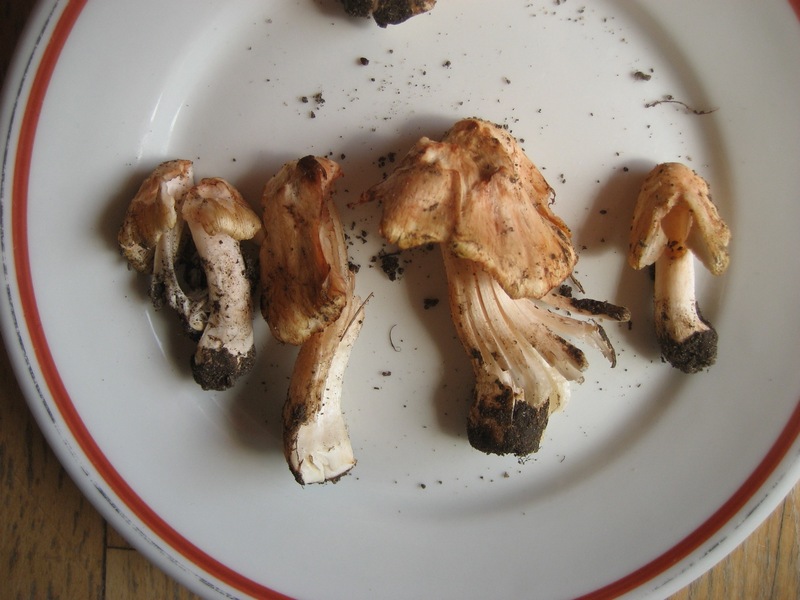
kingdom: Fungi
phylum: Basidiomycota
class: Agaricomycetes
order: Agaricales
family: Inocybaceae
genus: Inosperma
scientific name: Inosperma erubescens
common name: giftig trævlhat
